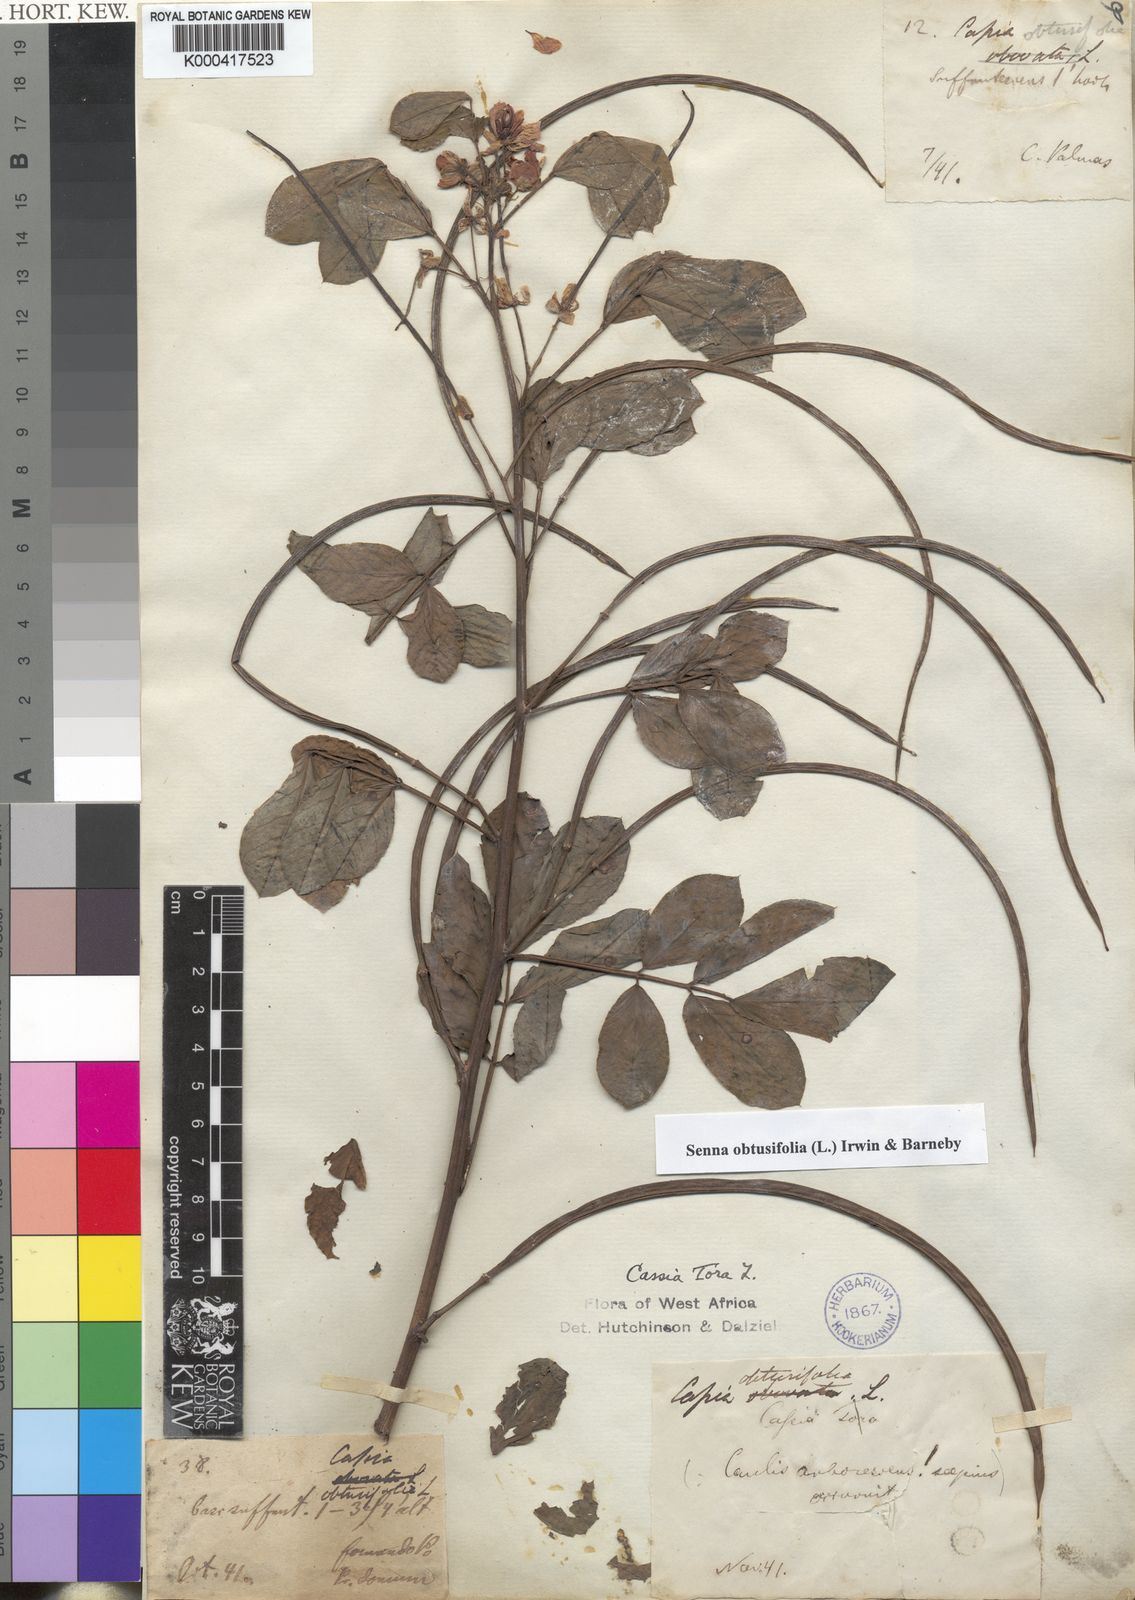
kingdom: Plantae
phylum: Tracheophyta
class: Magnoliopsida
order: Fabales
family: Fabaceae
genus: Senna
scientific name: Senna
